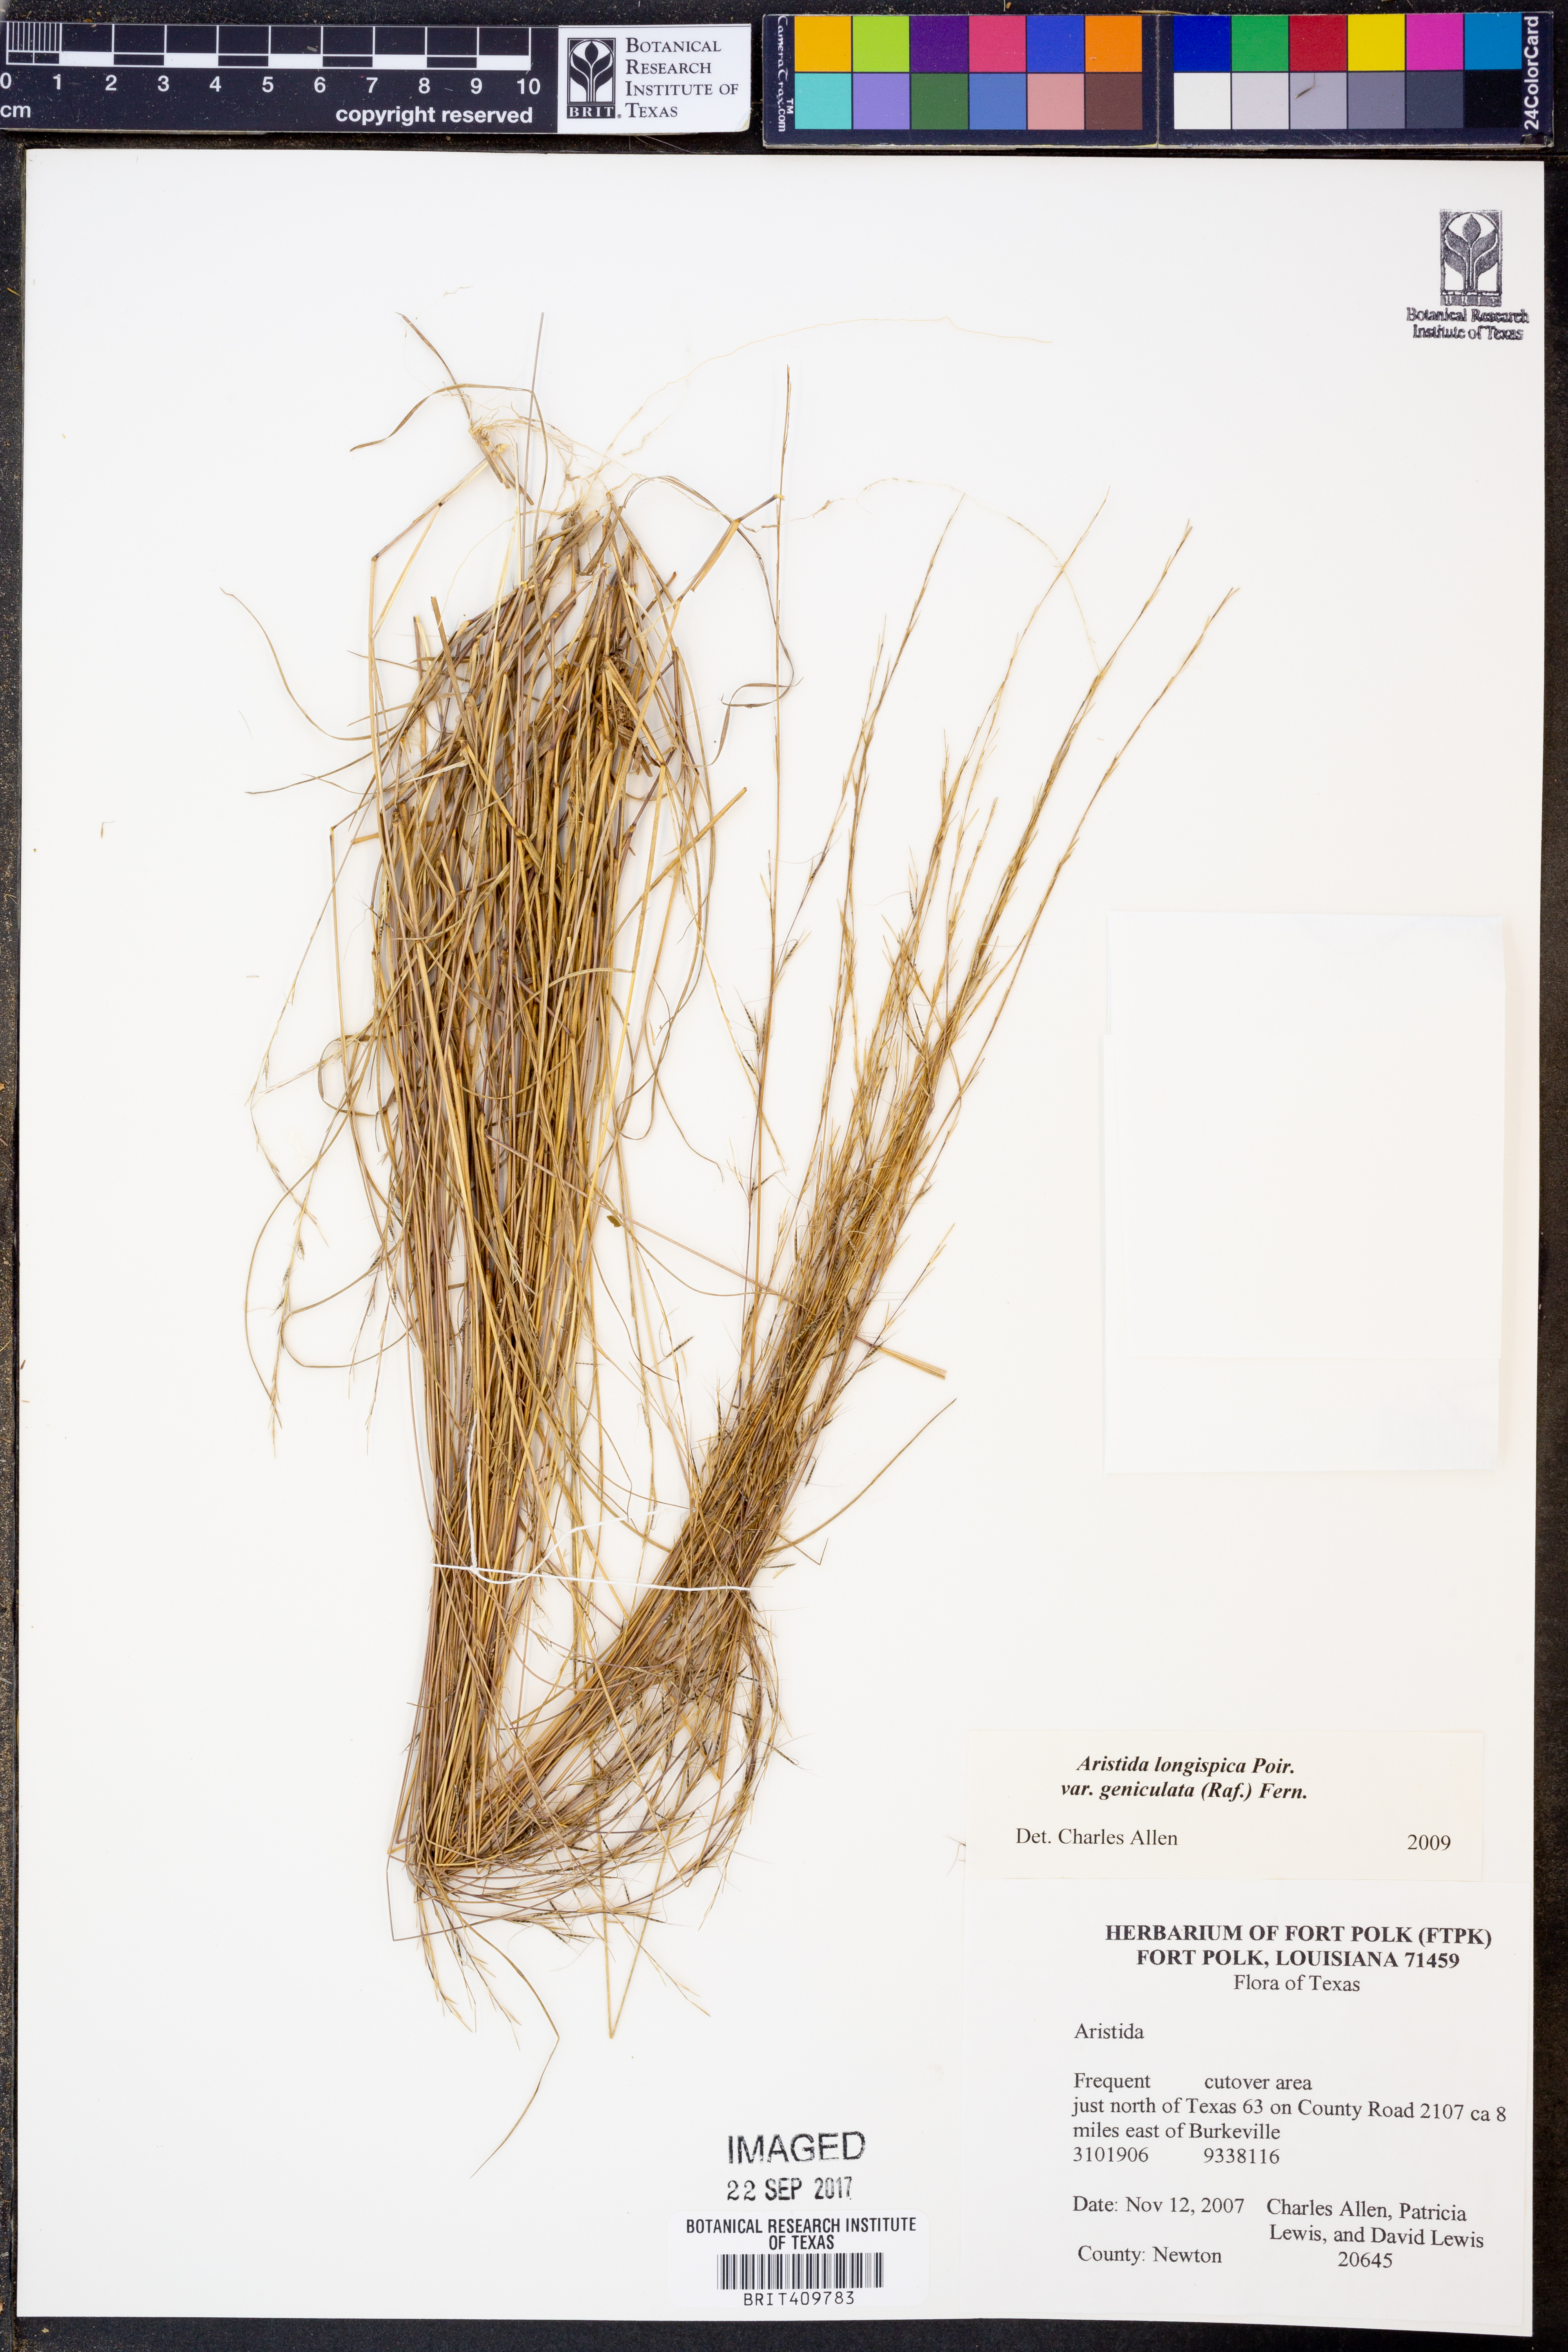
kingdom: Plantae
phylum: Tracheophyta
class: Liliopsida
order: Poales
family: Poaceae
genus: Aristida
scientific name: Aristida longispica
